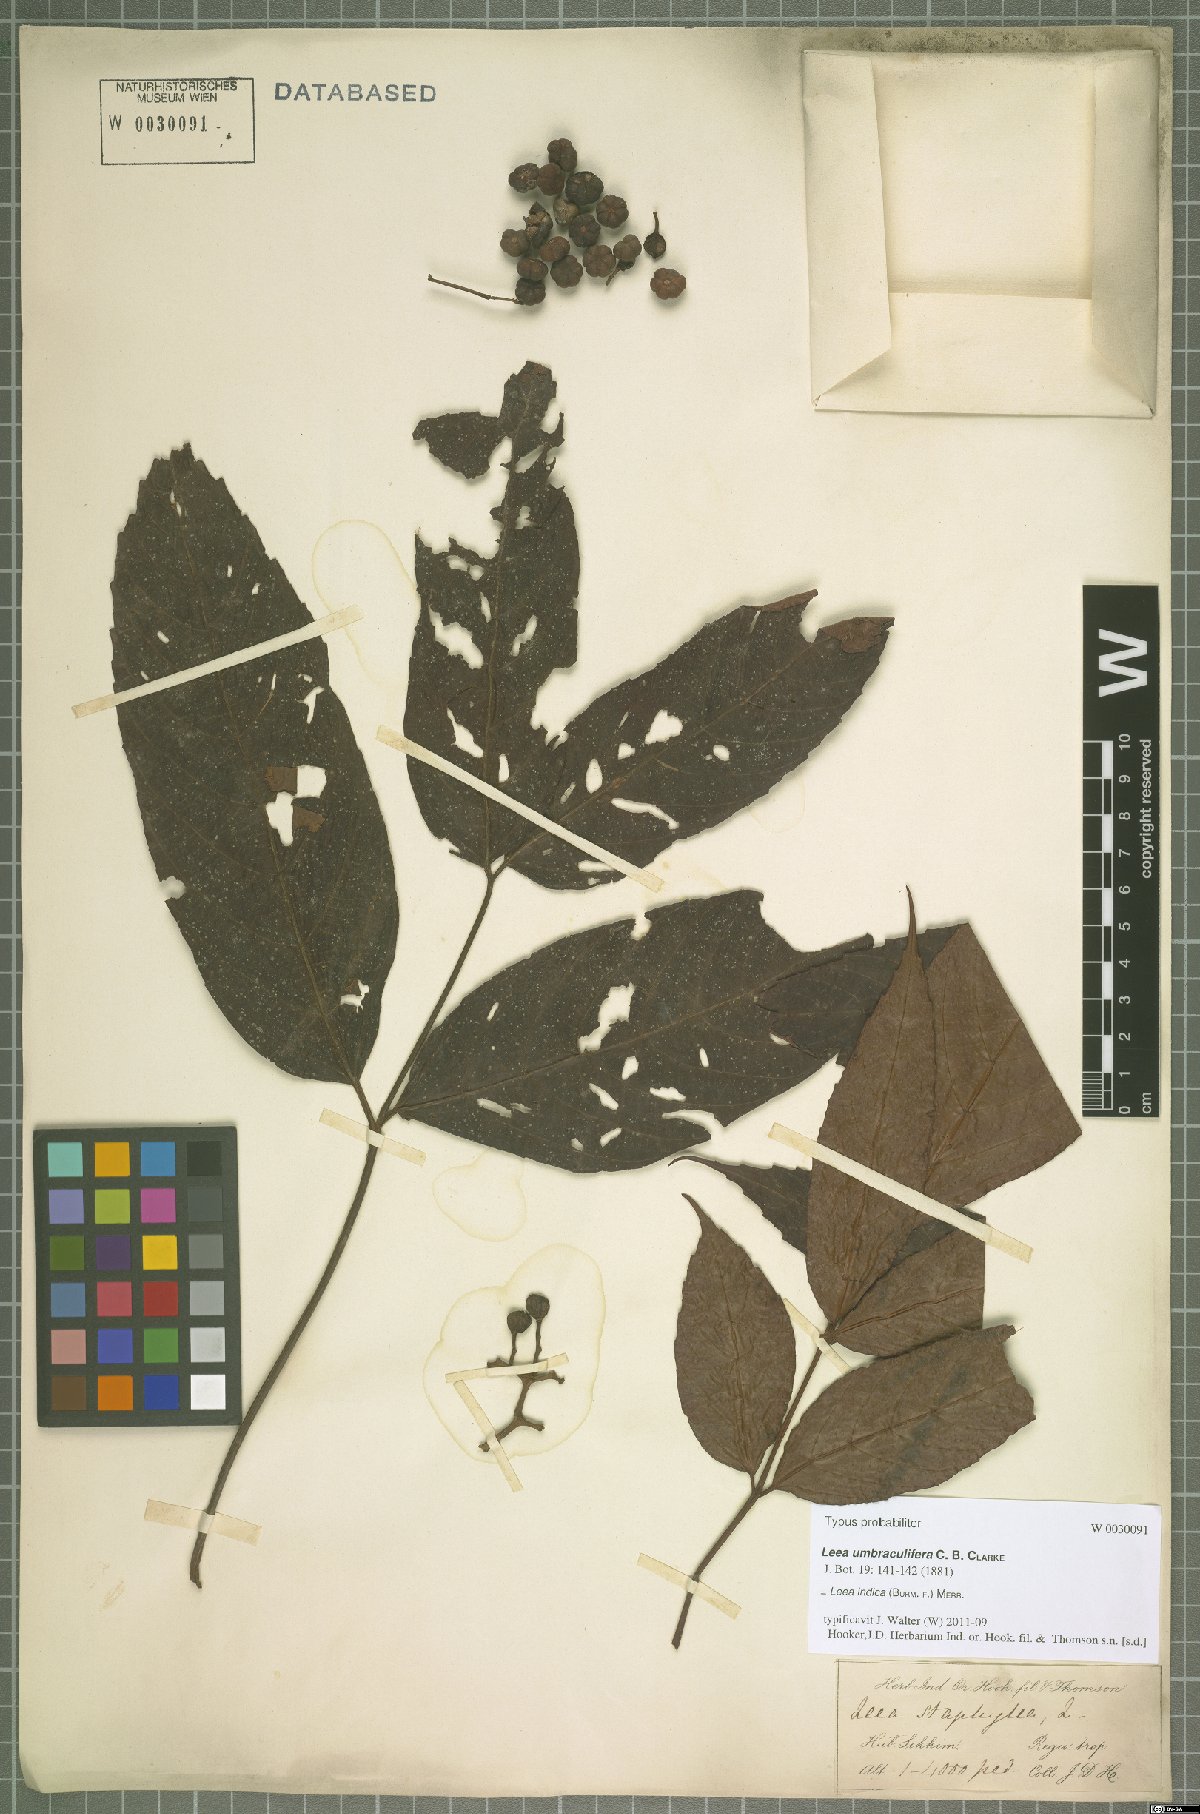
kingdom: Plantae
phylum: Tracheophyta
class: Magnoliopsida
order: Vitales
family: Vitaceae
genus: Leea
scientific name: Leea indica
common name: Bandicoot-berry
